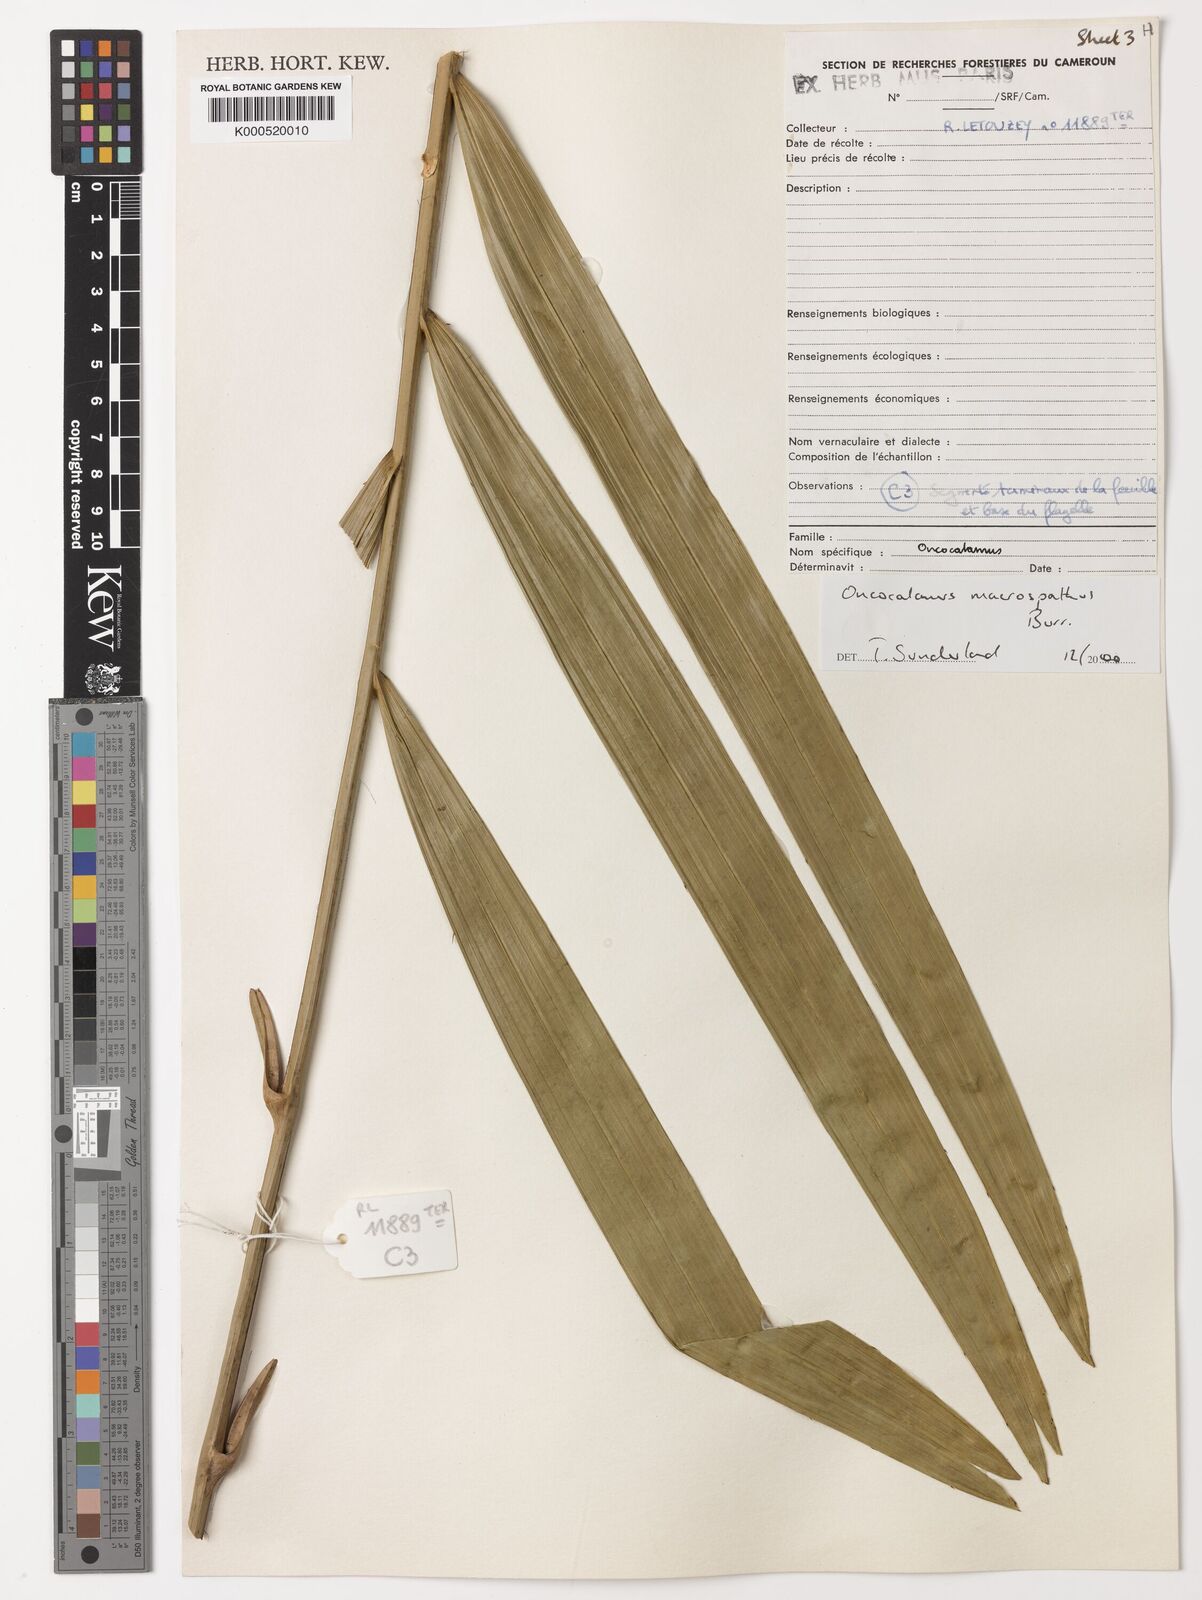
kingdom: Plantae
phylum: Tracheophyta
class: Liliopsida
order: Arecales
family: Arecaceae
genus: Oncocalamus
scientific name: Oncocalamus macrospathus
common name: Rattan
